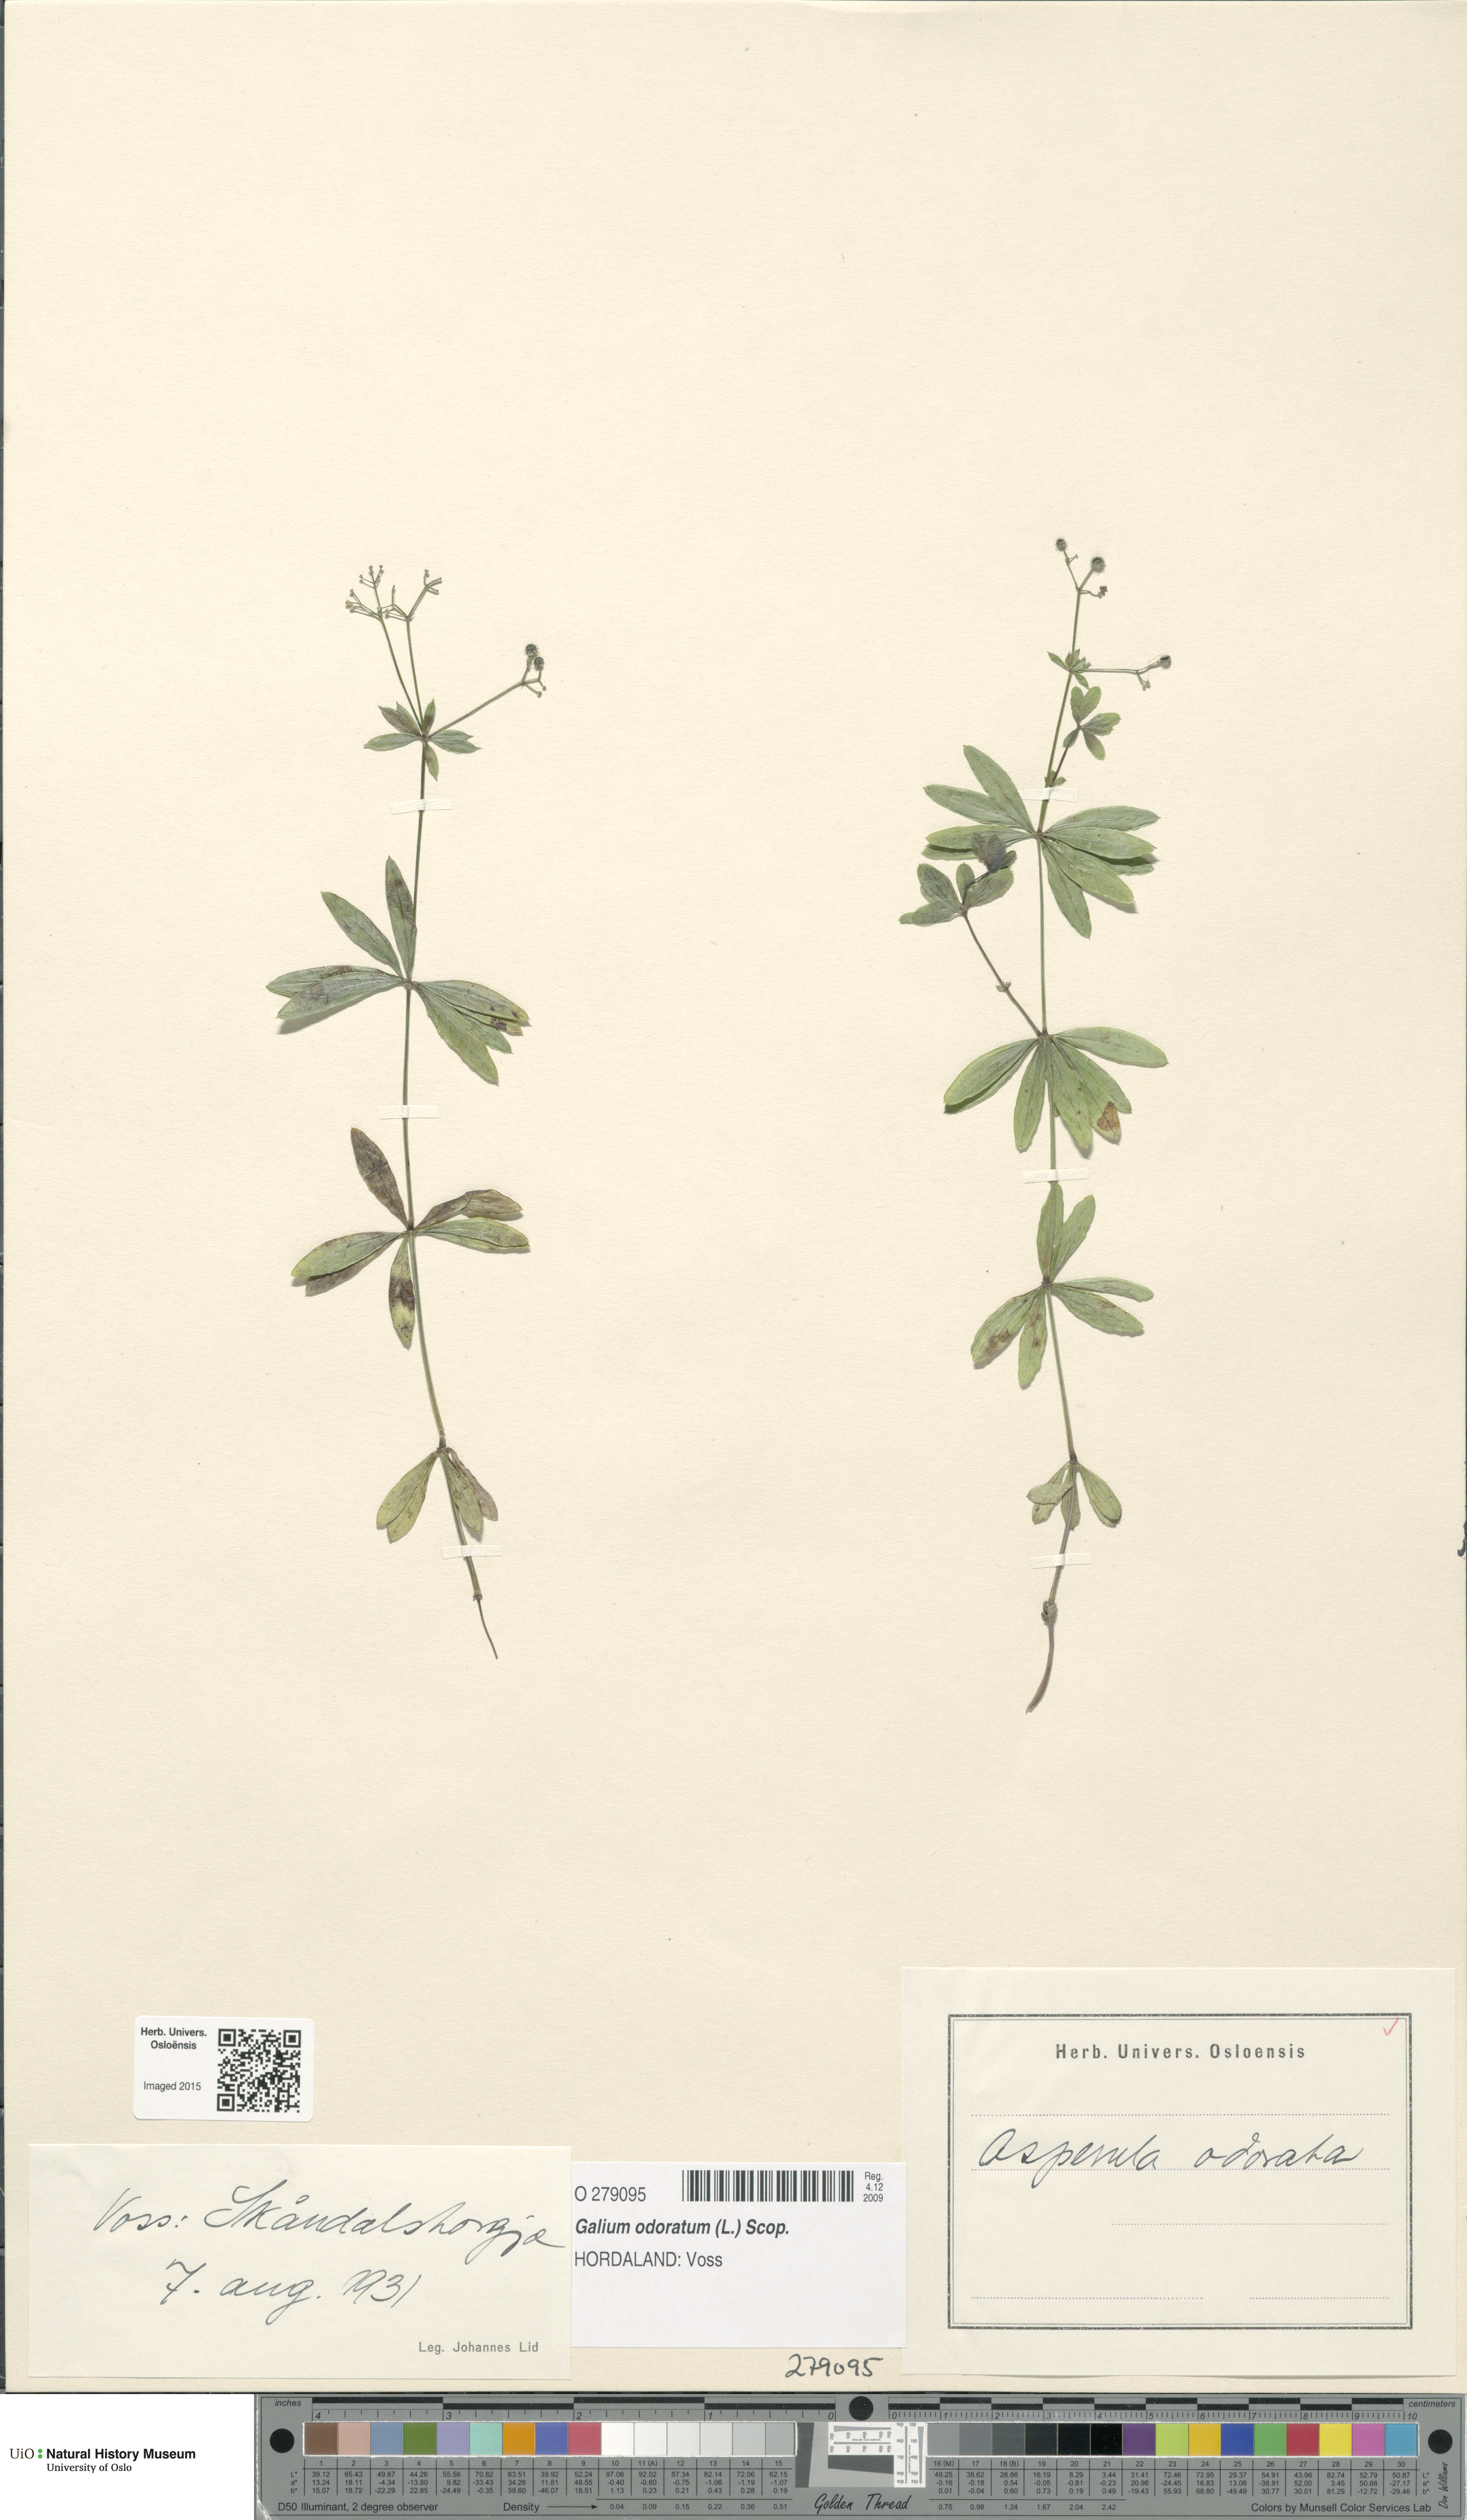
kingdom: Plantae
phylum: Tracheophyta
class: Magnoliopsida
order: Gentianales
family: Rubiaceae
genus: Galium
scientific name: Galium odoratum
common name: Sweet woodruff
